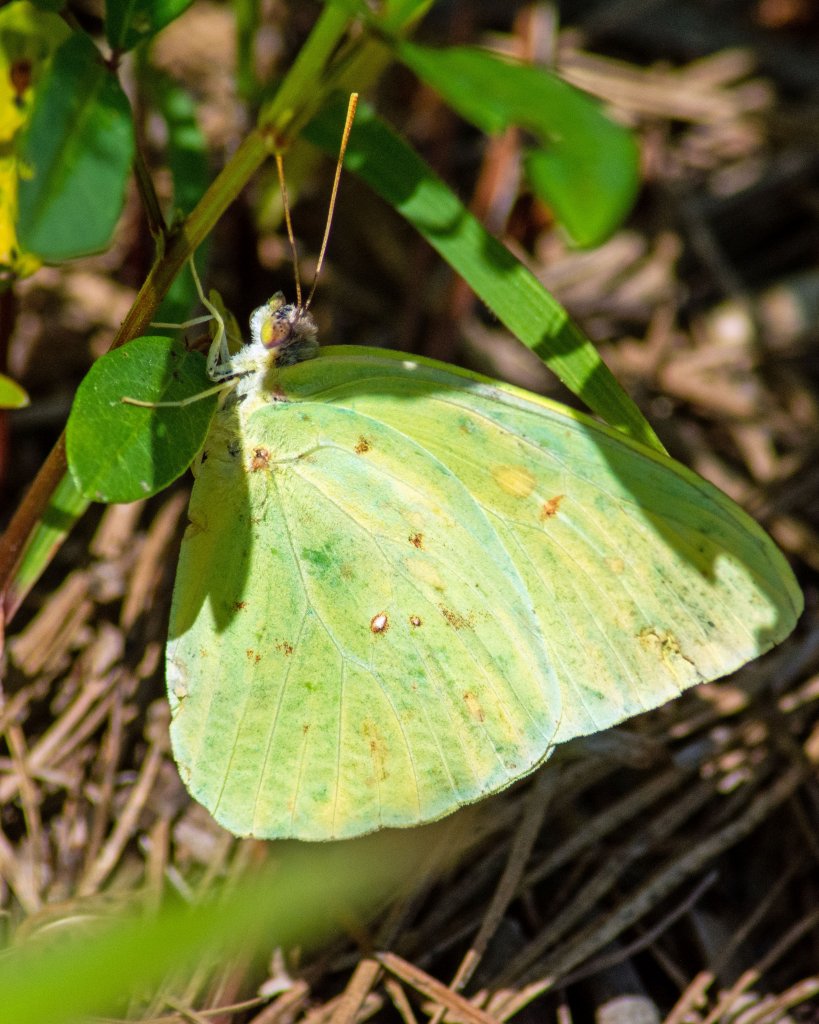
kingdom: Animalia
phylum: Arthropoda
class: Insecta
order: Lepidoptera
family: Pieridae
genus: Phoebis
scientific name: Phoebis sennae
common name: Cloudless Sulphur
